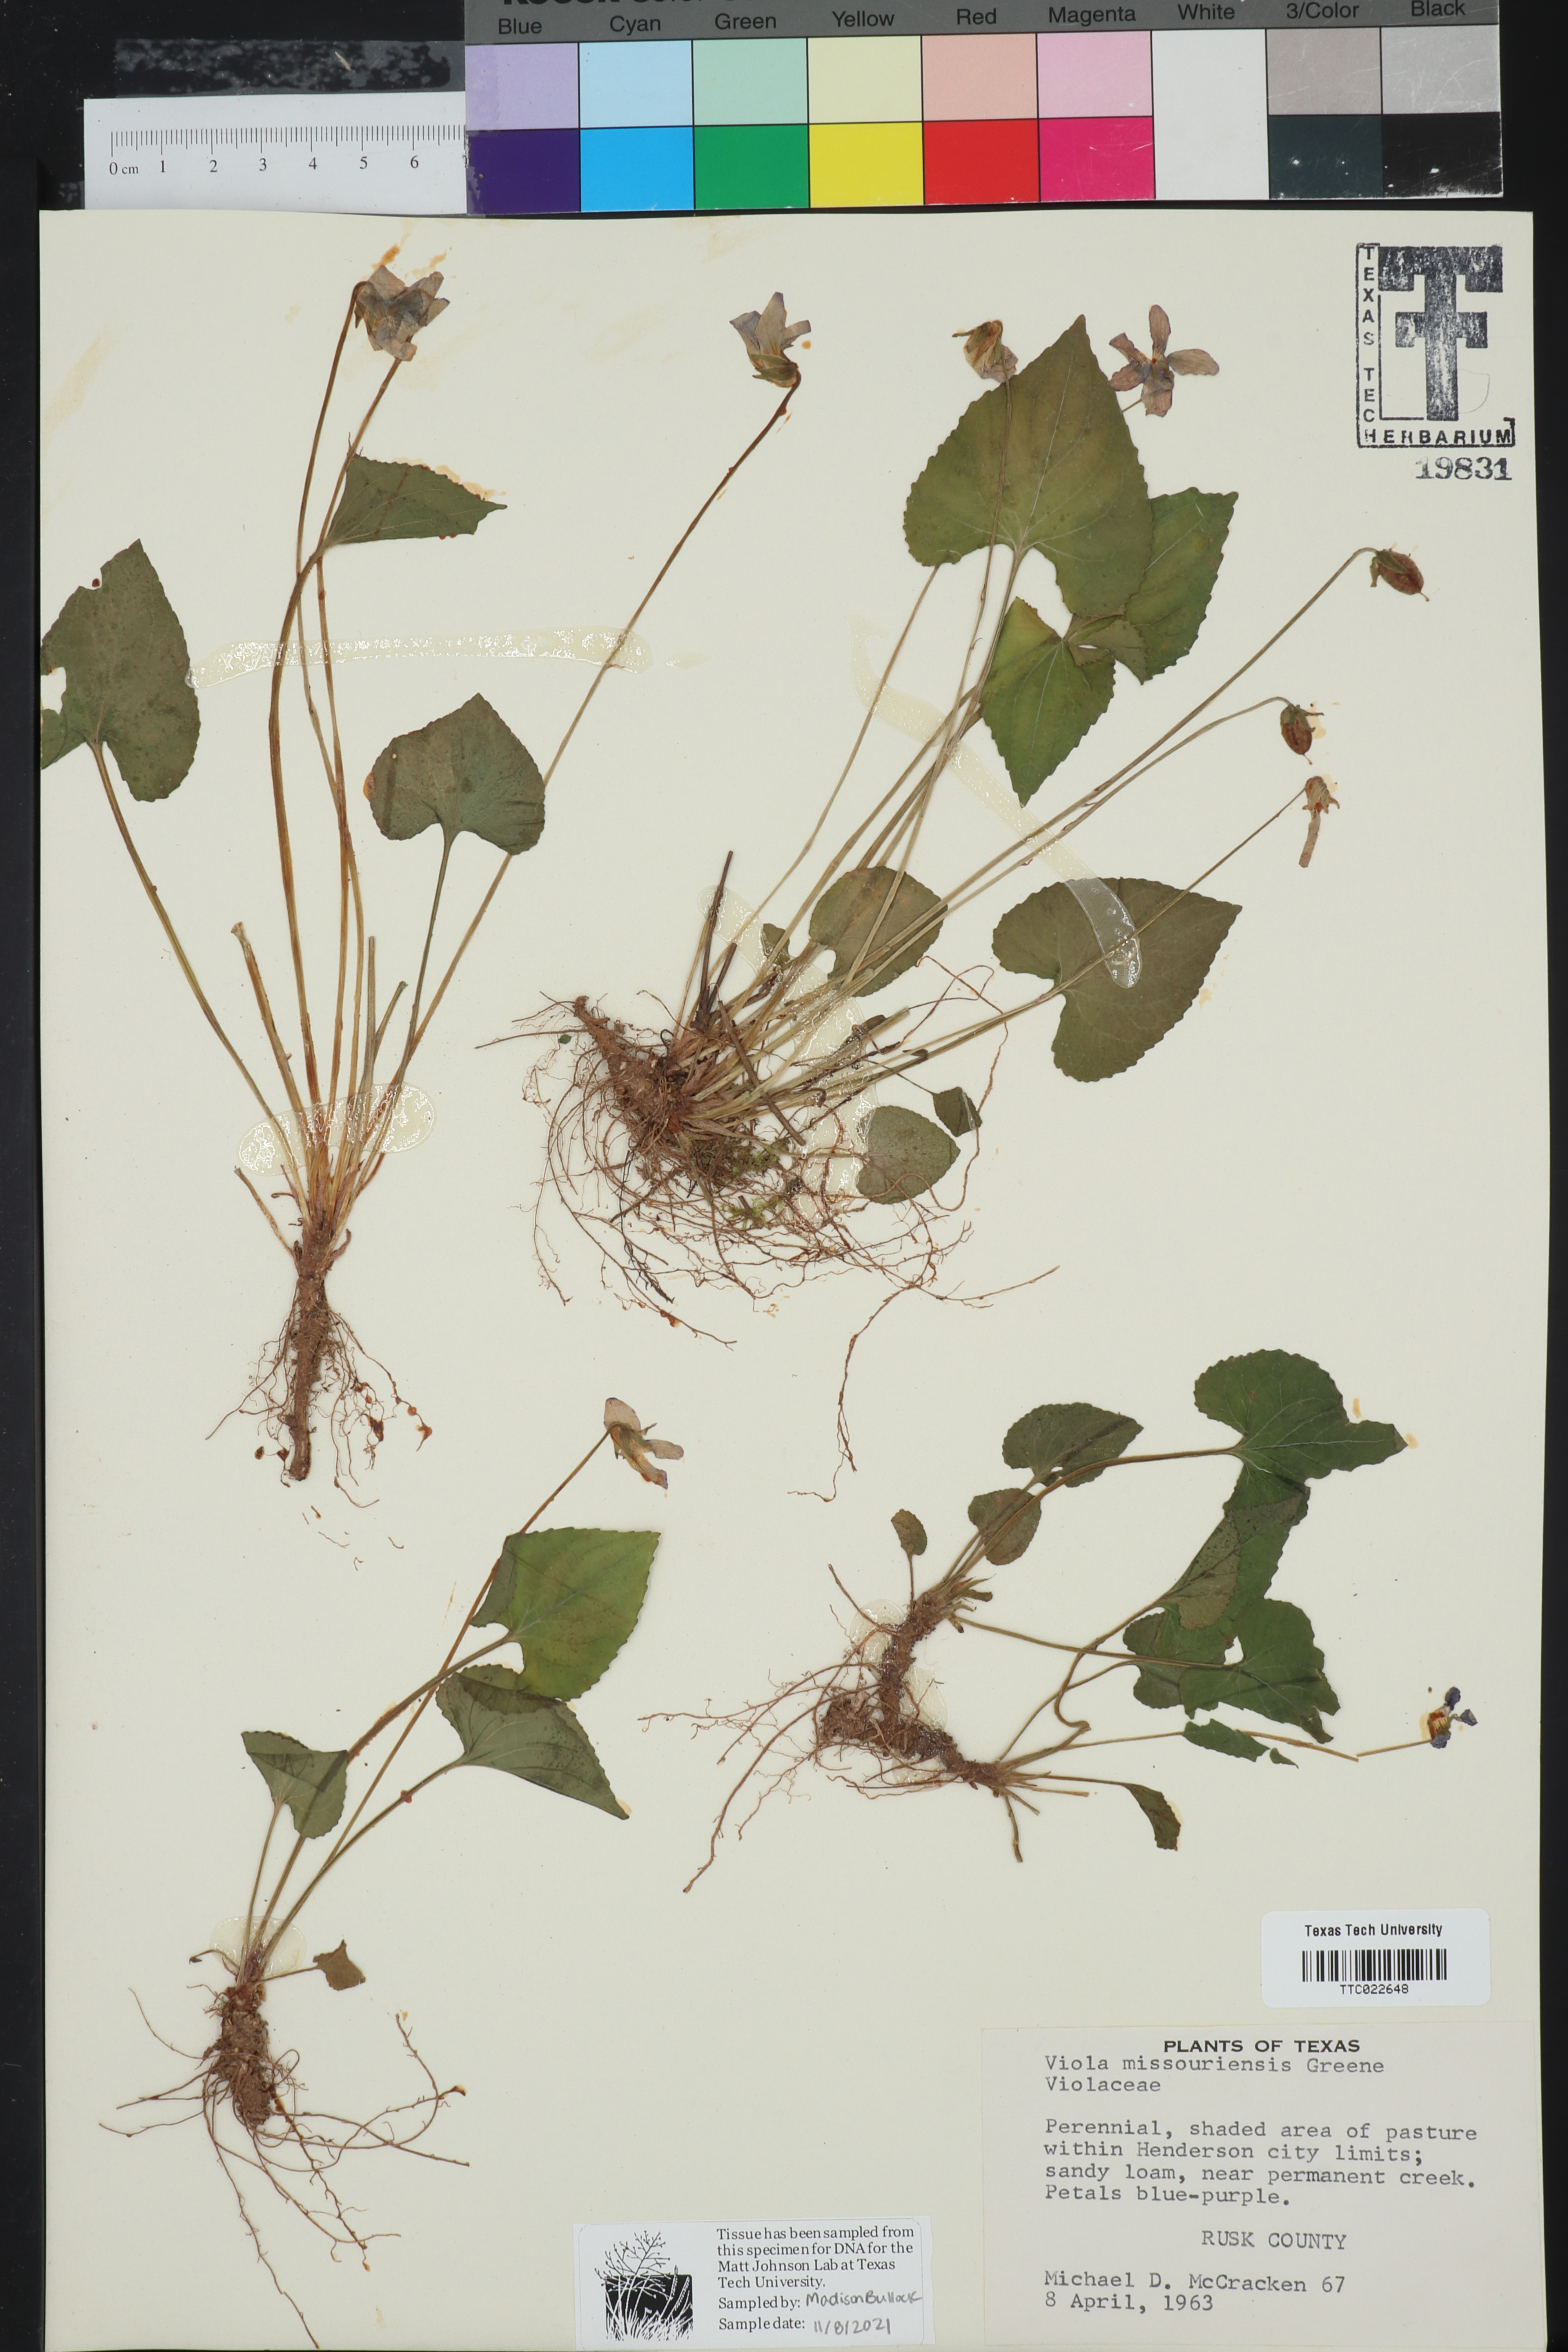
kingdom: Plantae
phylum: Tracheophyta
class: Magnoliopsida
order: Malpighiales
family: Violaceae
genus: Viola
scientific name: Viola missouriensis
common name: Missouri violet
